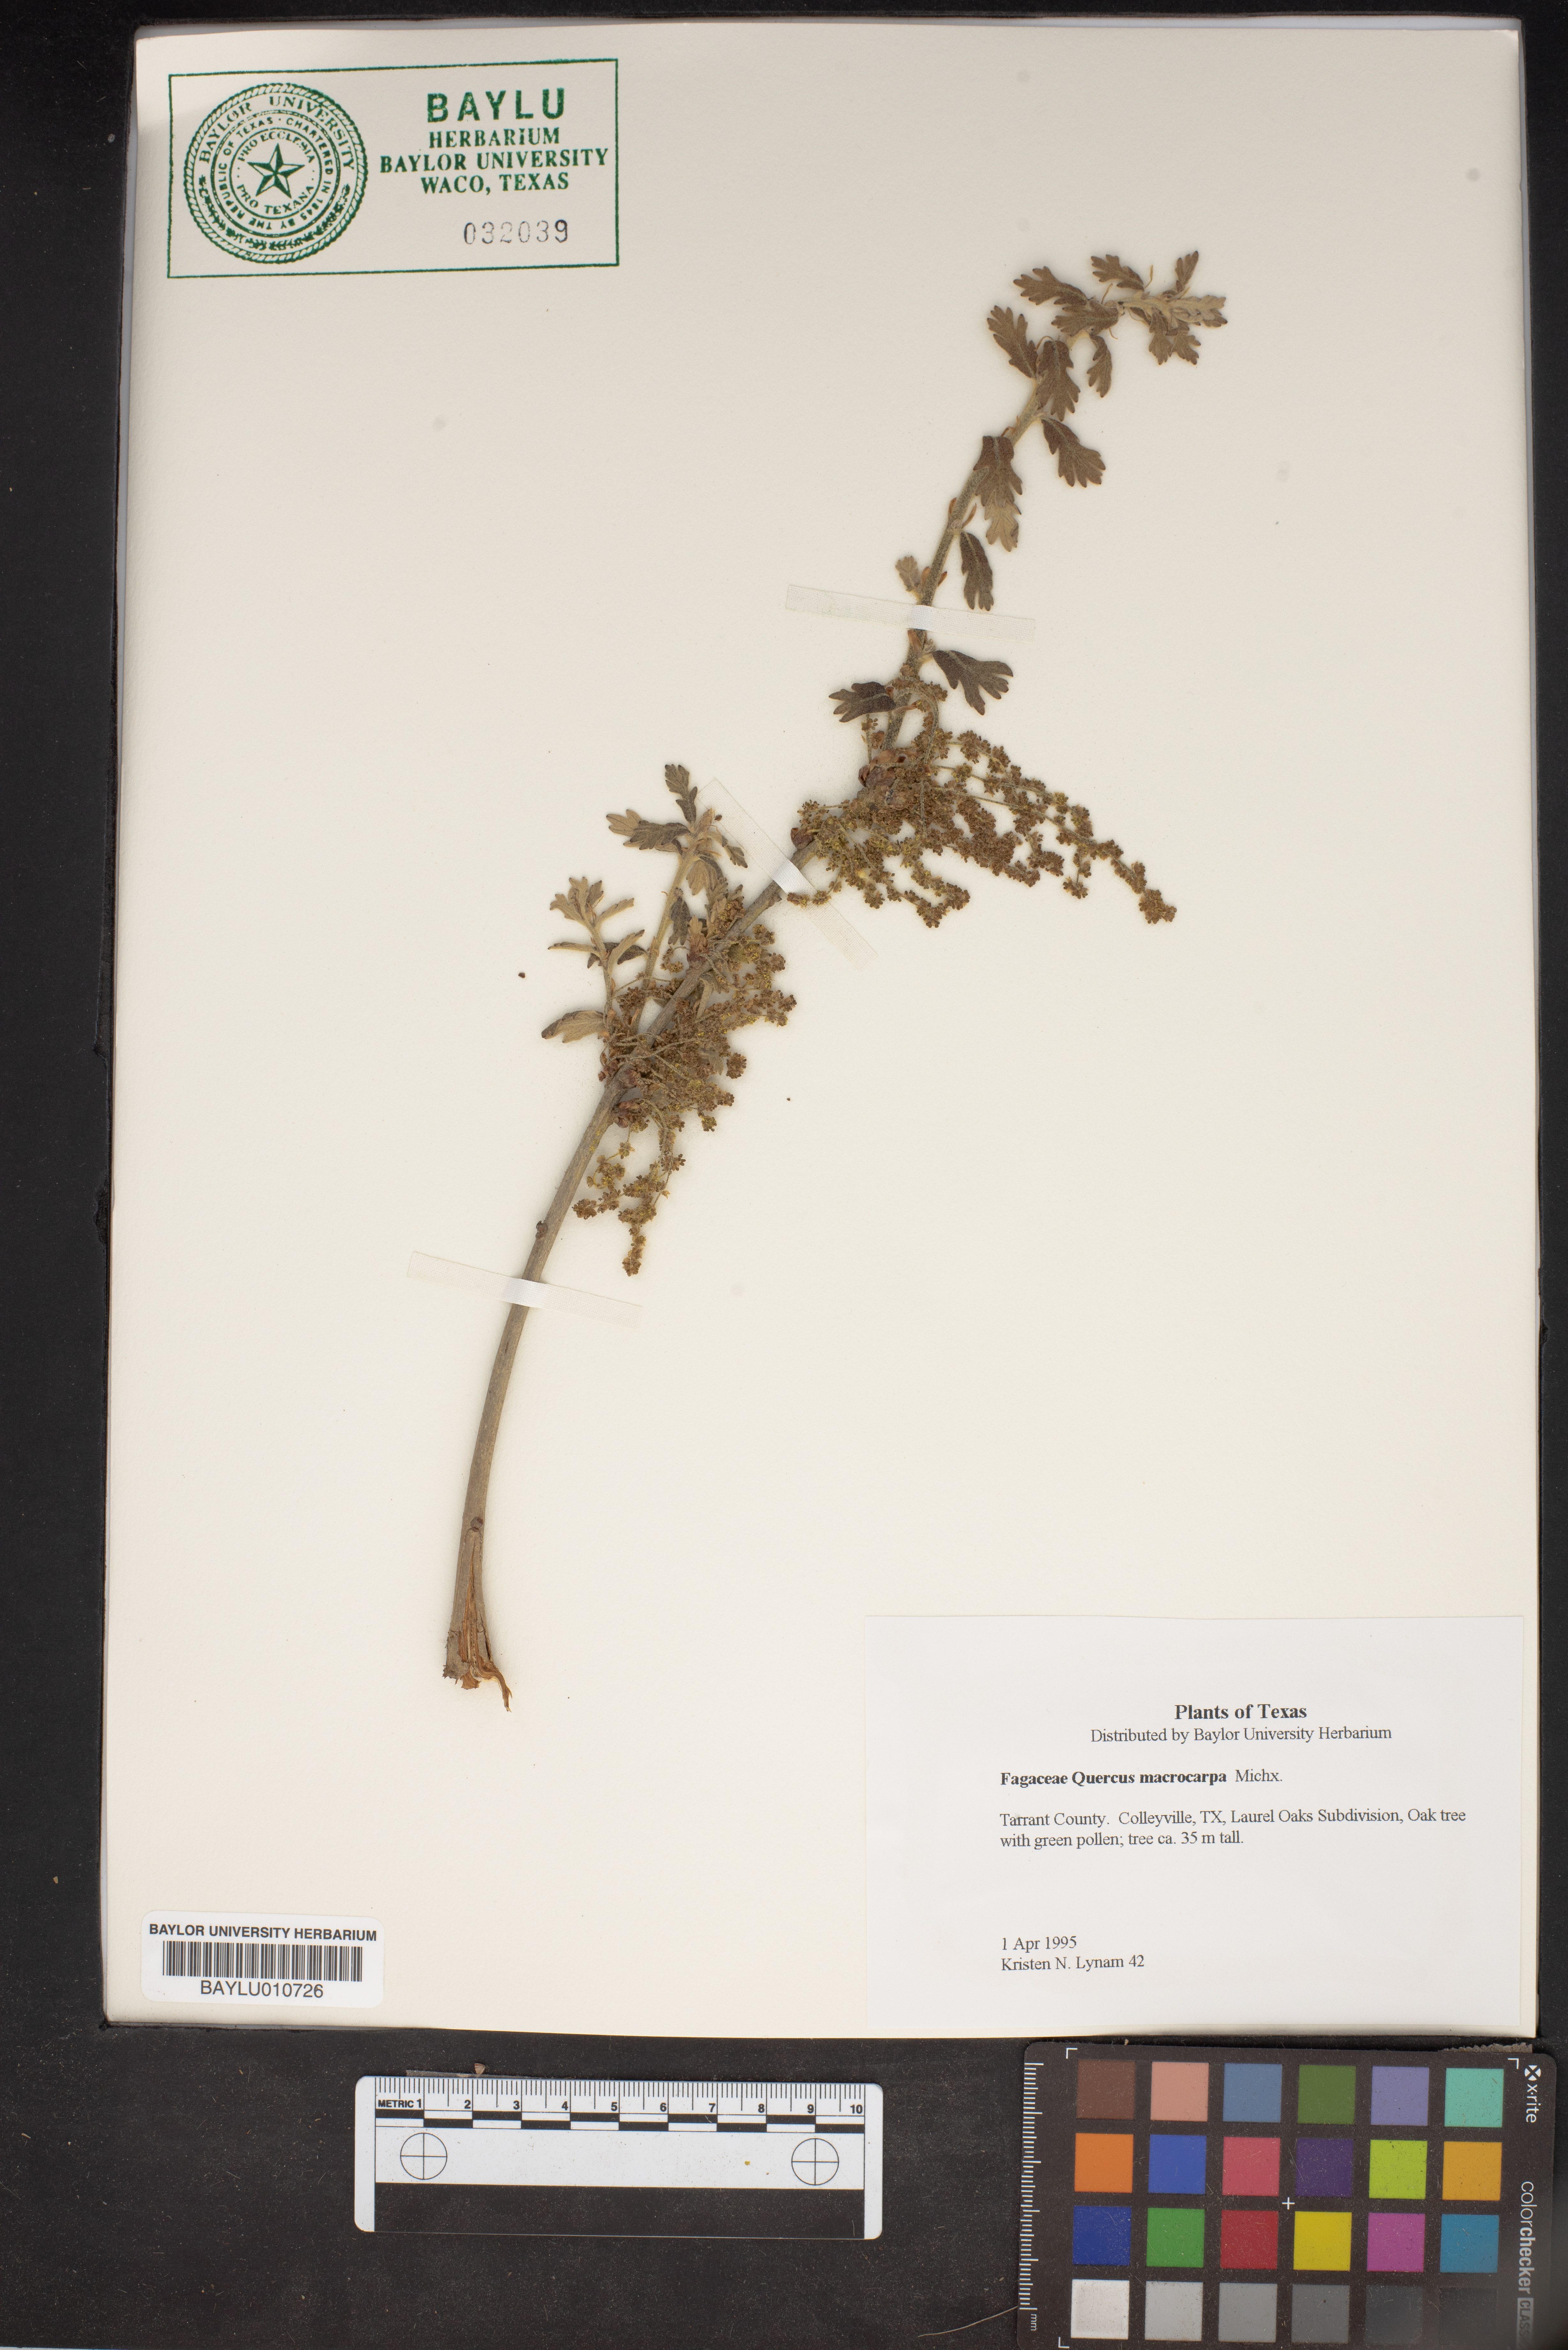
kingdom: Plantae
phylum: Tracheophyta
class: Magnoliopsida
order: Fagales
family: Fagaceae
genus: Quercus
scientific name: Quercus macrocarpa
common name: Bur oak
